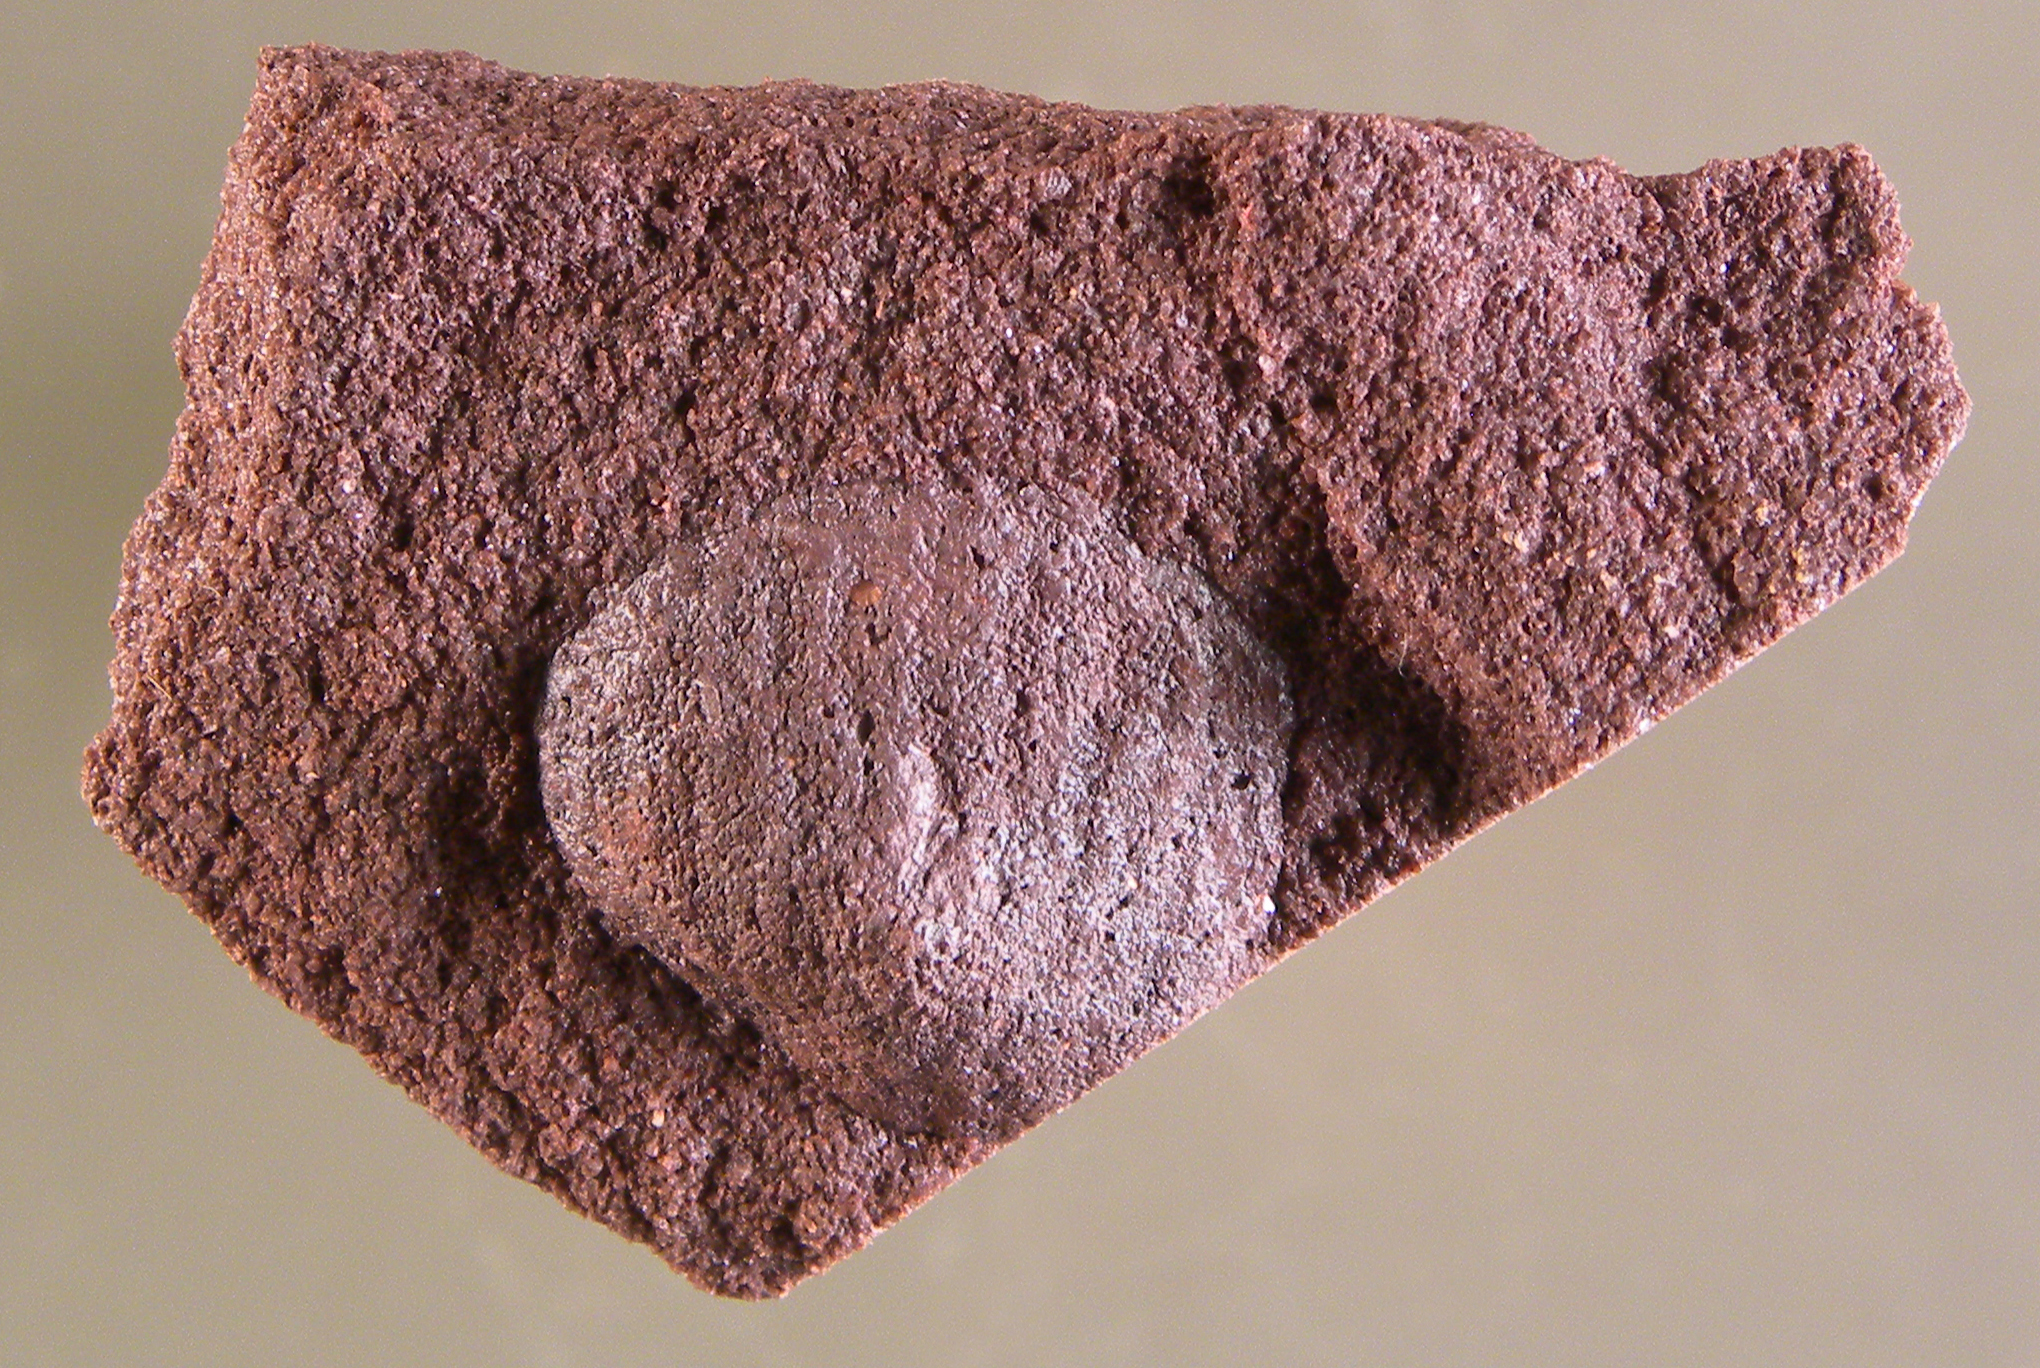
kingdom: Animalia
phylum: Brachiopoda
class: Craniata
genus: Merglia
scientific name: Merglia
